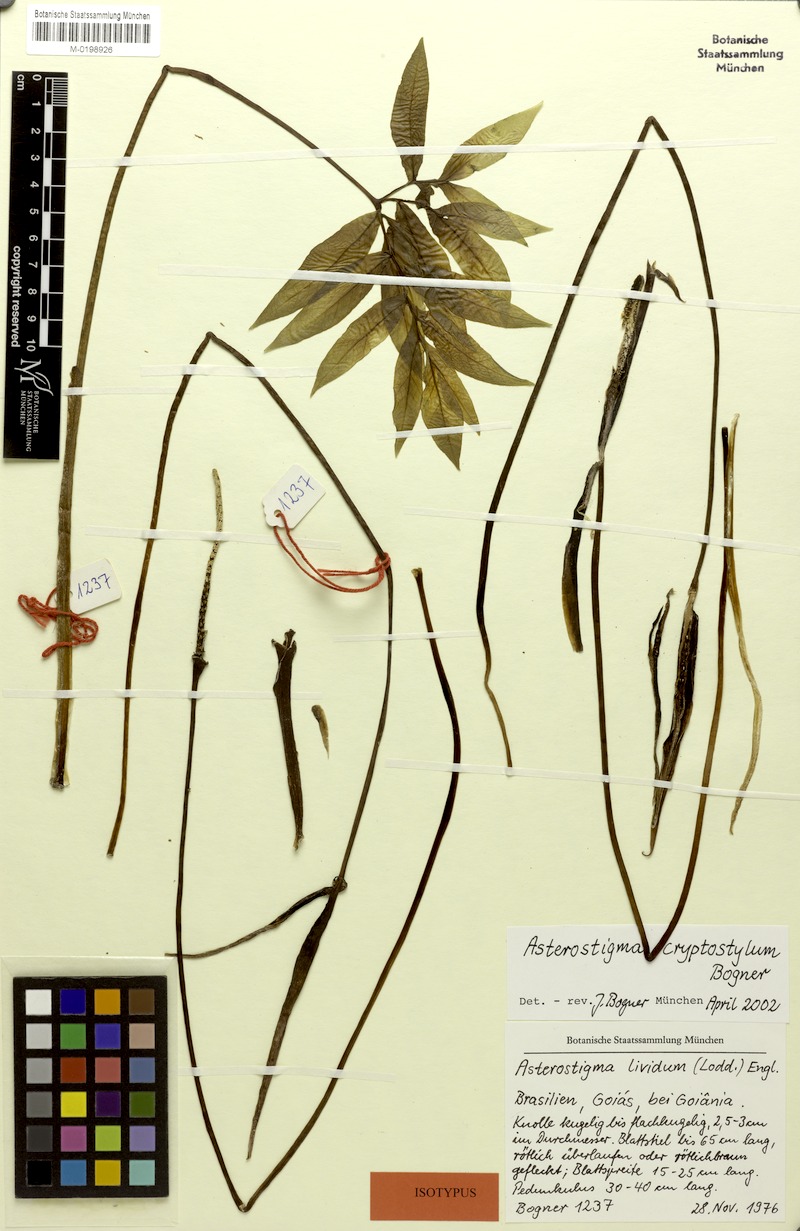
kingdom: Plantae
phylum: Tracheophyta
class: Liliopsida
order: Alismatales
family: Araceae
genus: Asterostigma
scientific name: Asterostigma cryptostylum
